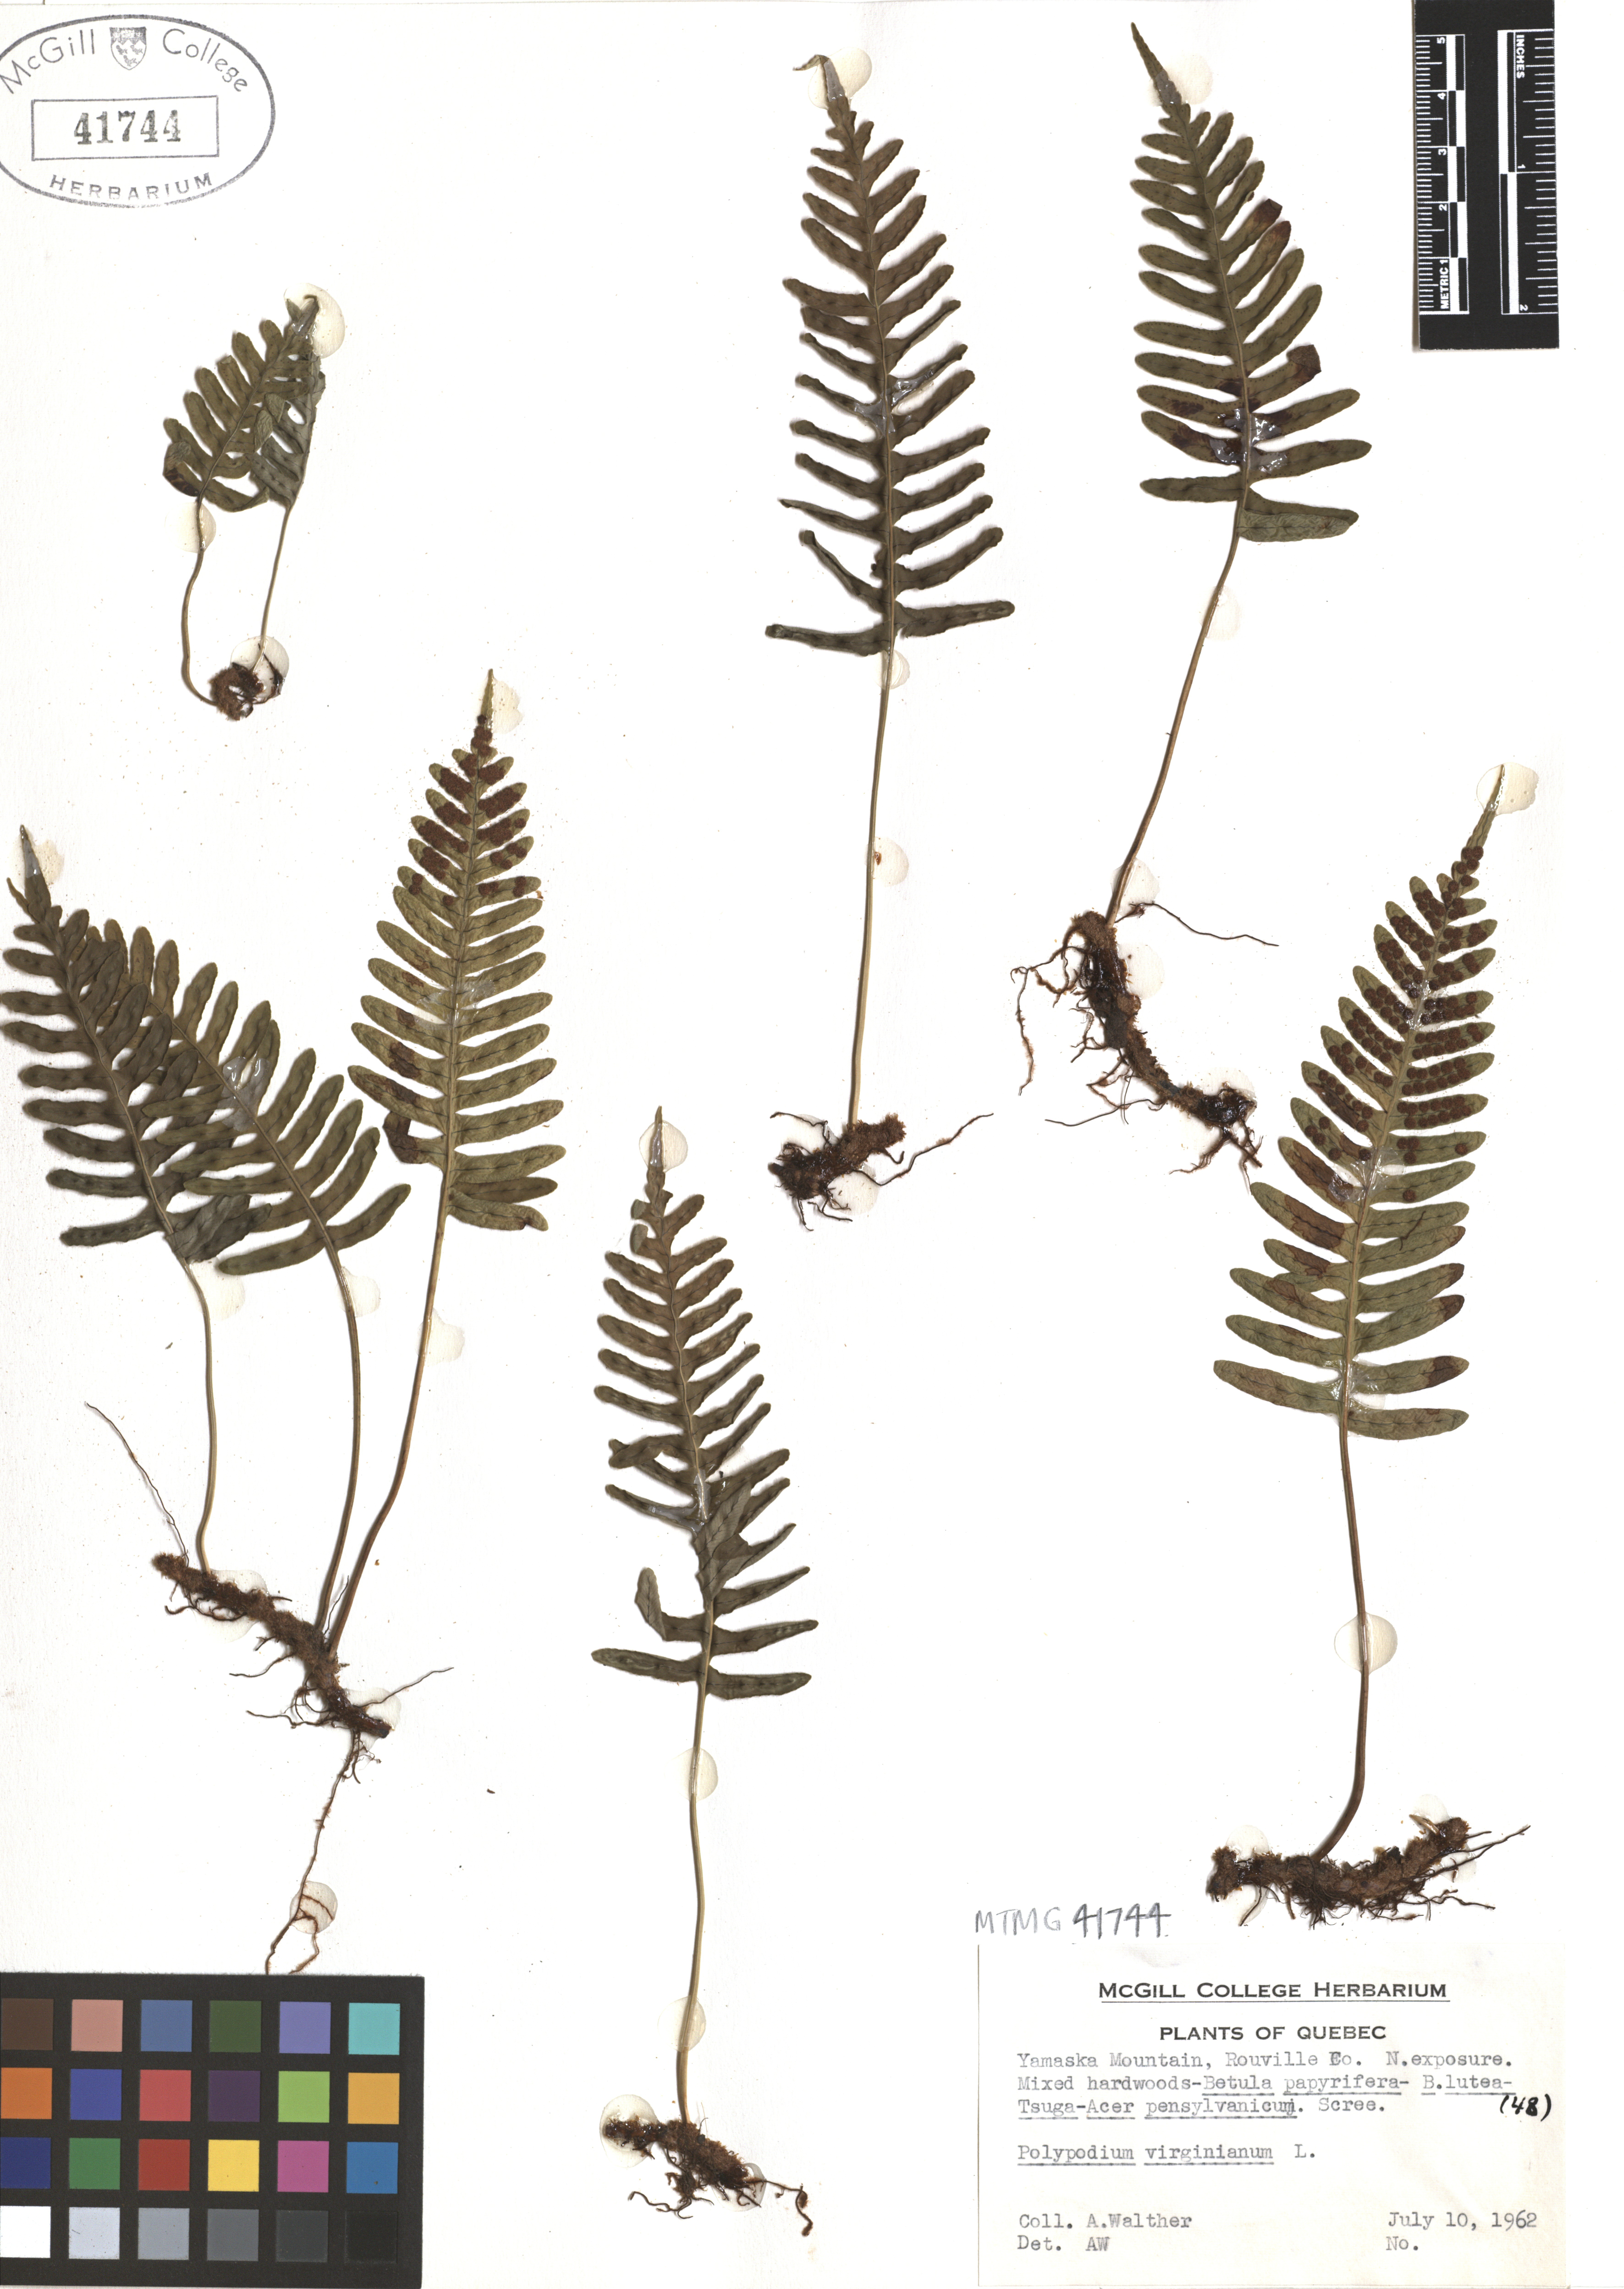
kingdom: Plantae
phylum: Tracheophyta
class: Polypodiopsida
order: Polypodiales
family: Polypodiaceae
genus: Polypodium
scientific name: Polypodium virginianum
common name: American wall fern
